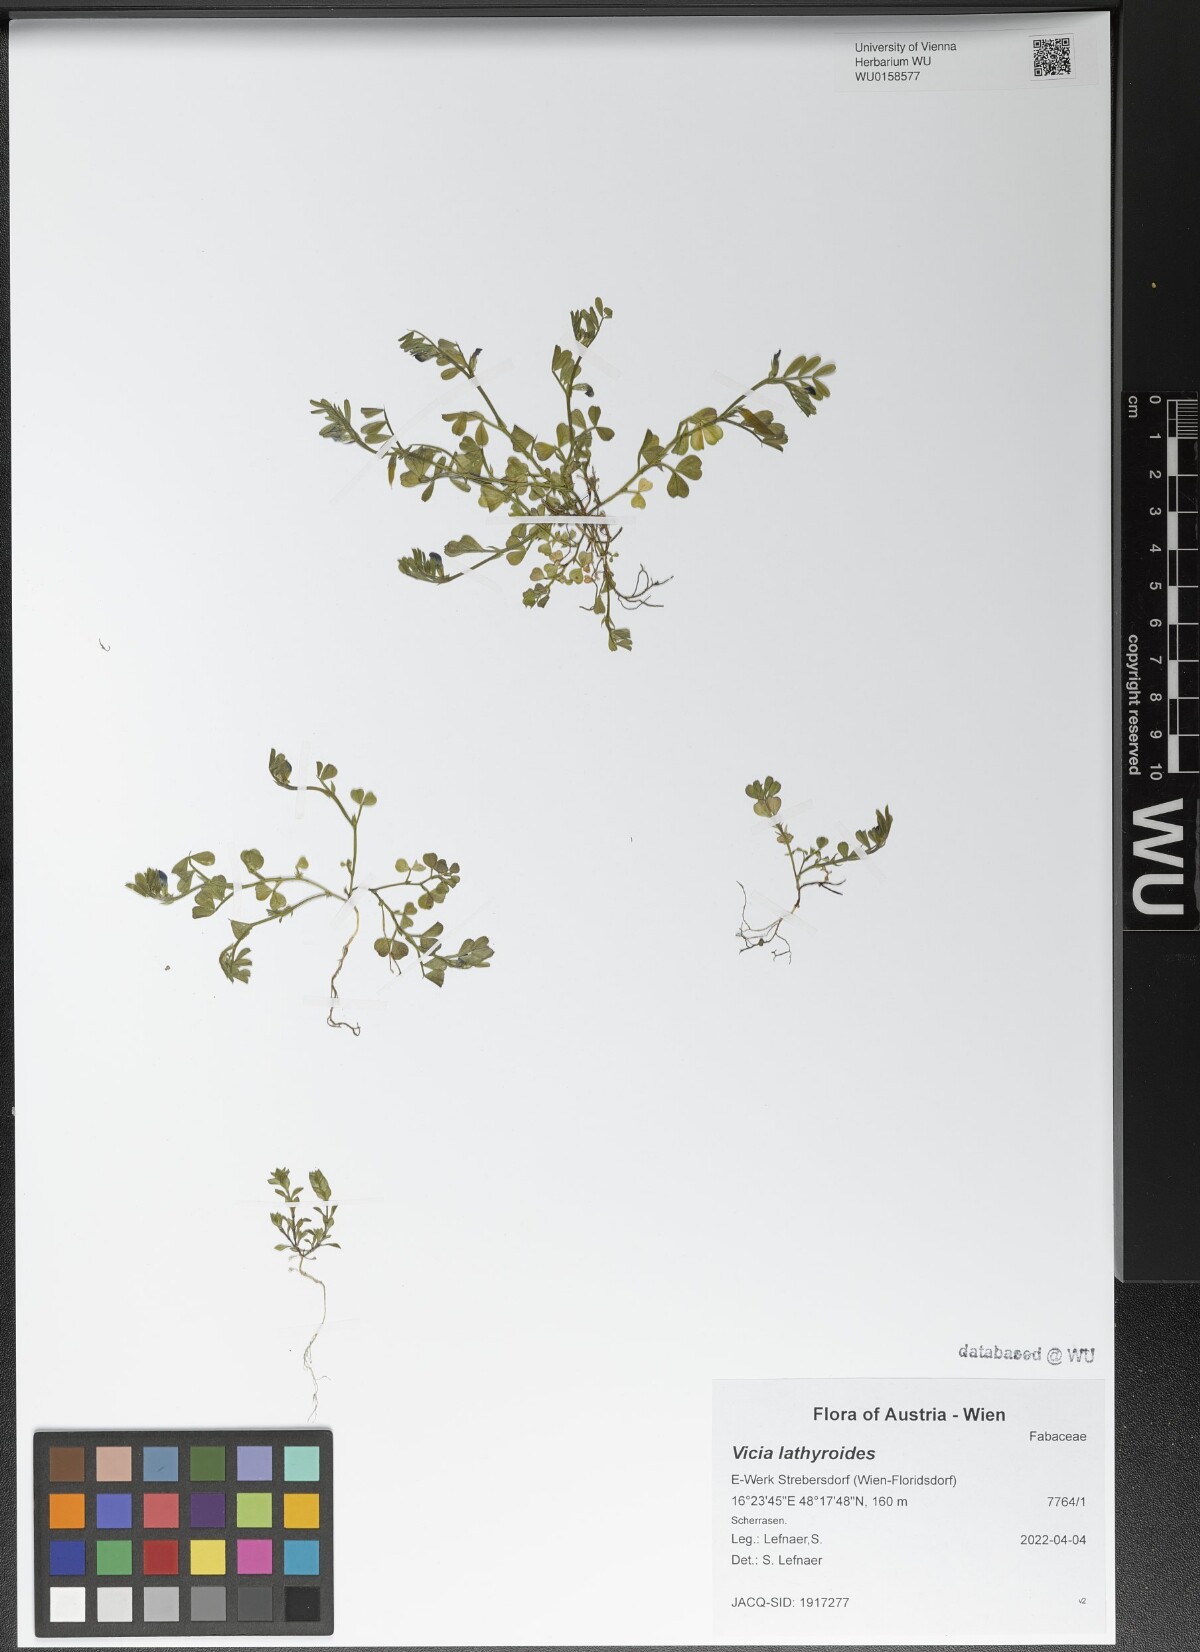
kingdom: Plantae
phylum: Tracheophyta
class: Magnoliopsida
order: Fabales
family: Fabaceae
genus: Vicia
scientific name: Vicia lathyroides
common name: Spring vetch
